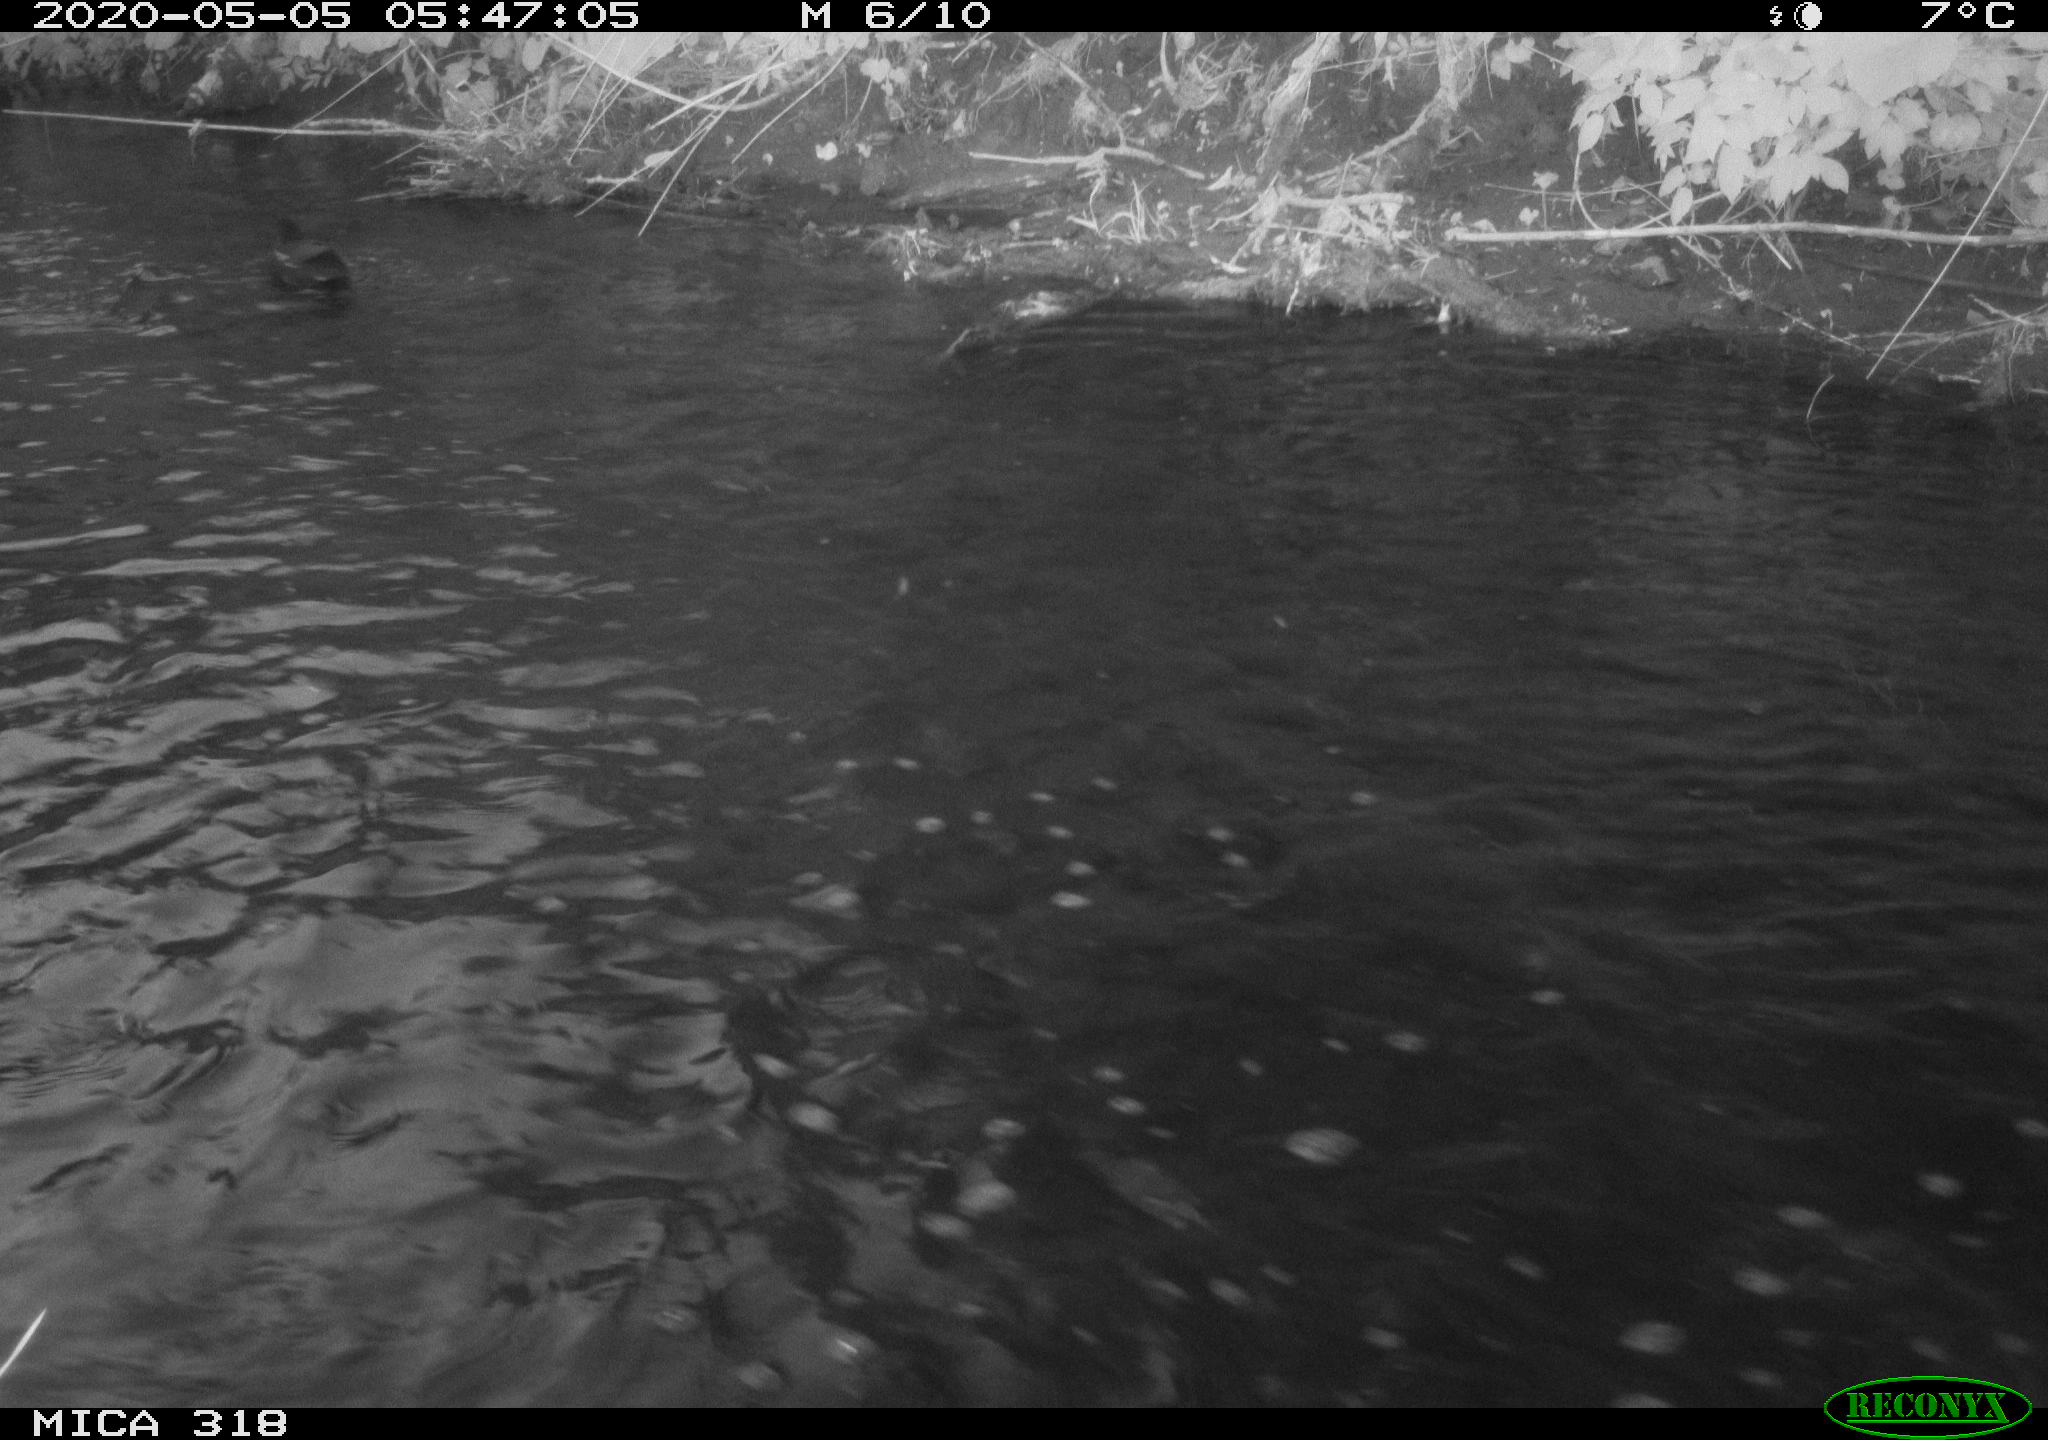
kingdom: Animalia
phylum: Chordata
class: Aves
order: Gruiformes
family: Rallidae
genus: Gallinula
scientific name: Gallinula chloropus
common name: Common moorhen
